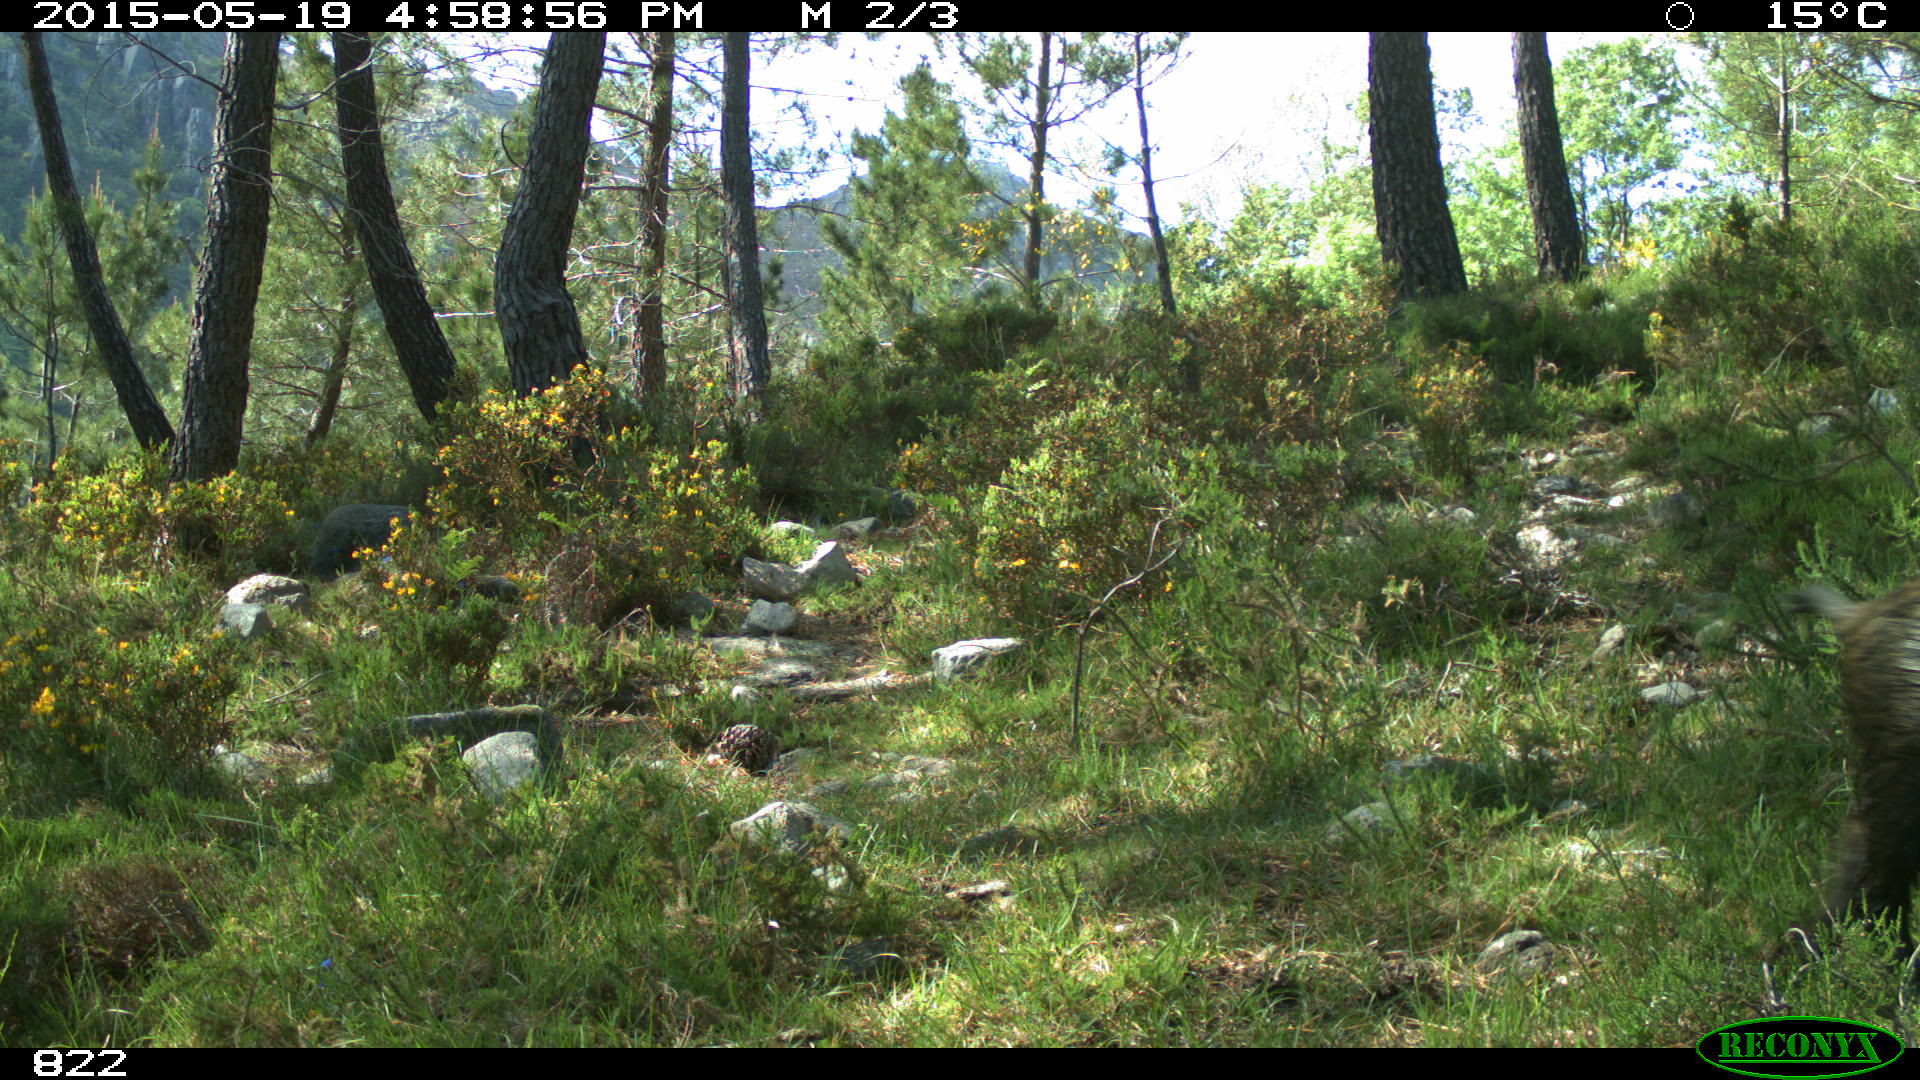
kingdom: Animalia
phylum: Chordata
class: Mammalia
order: Artiodactyla
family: Suidae
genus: Sus
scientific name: Sus scrofa
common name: Wild boar
